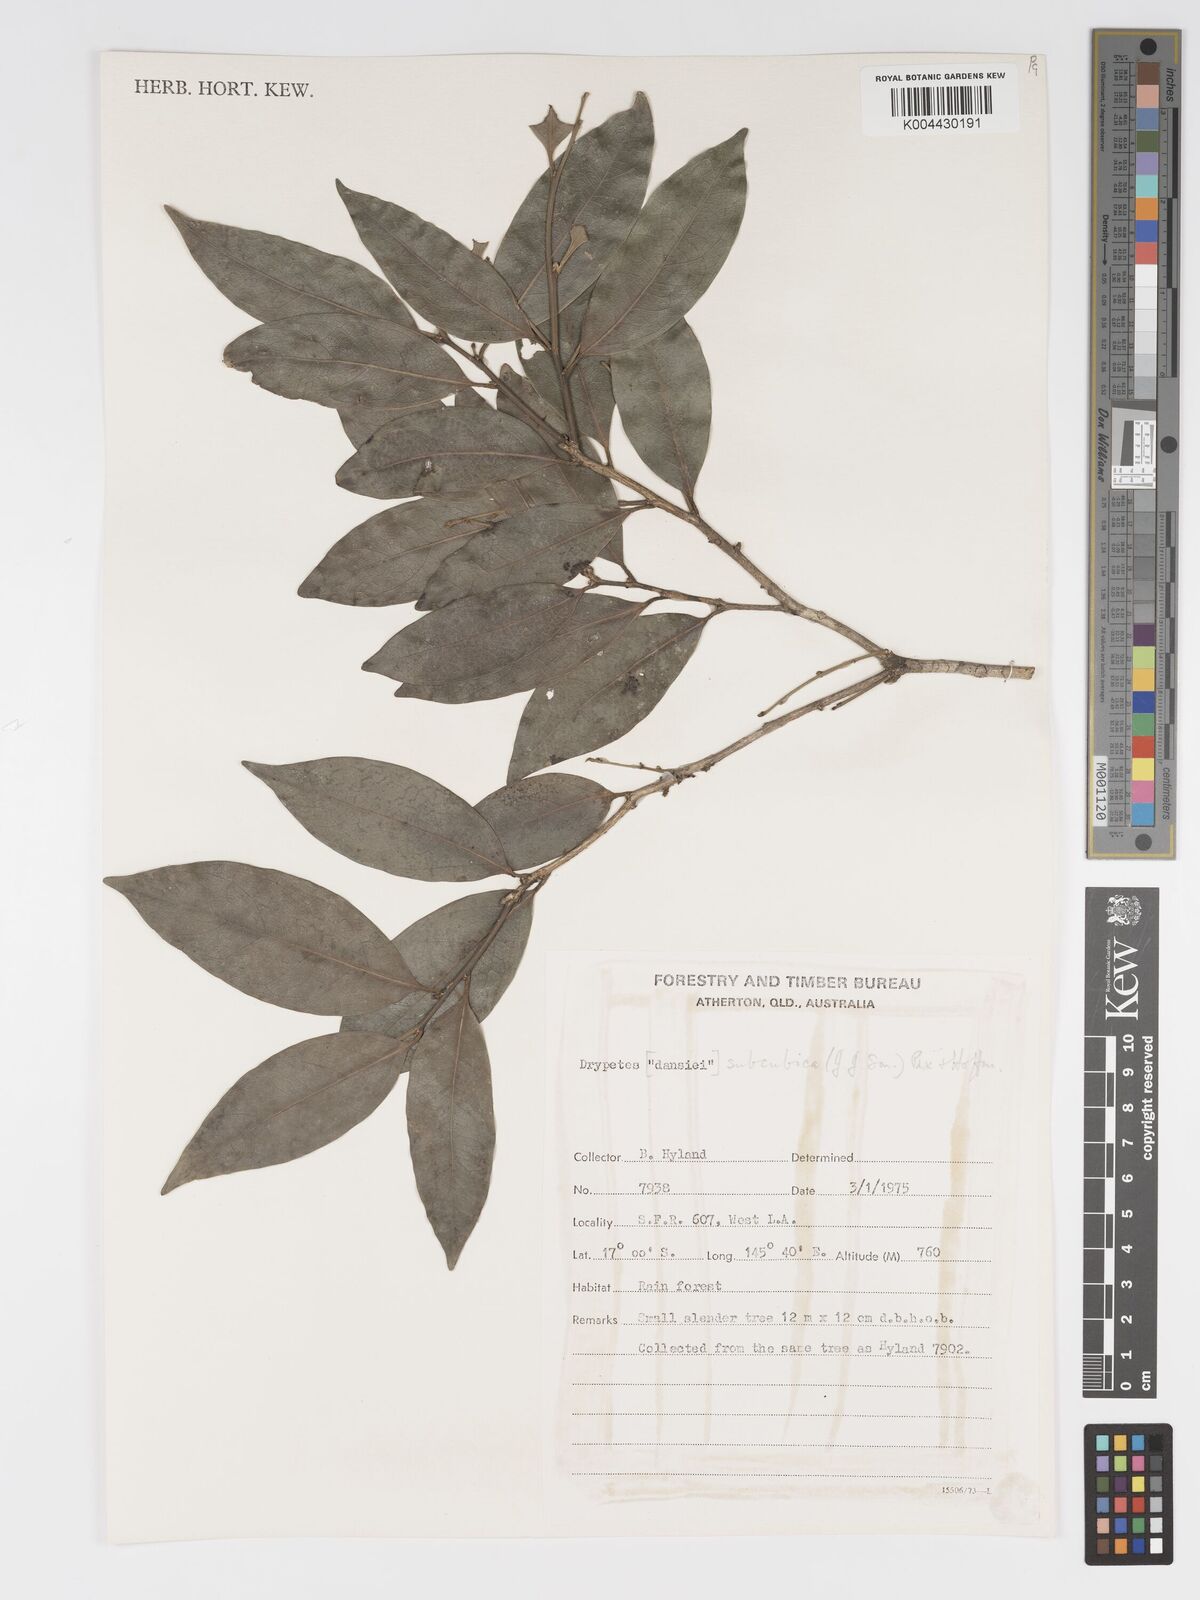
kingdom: Plantae
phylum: Tracheophyta
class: Magnoliopsida
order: Malpighiales
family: Putranjivaceae
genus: Drypetes
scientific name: Drypetes subcubica
